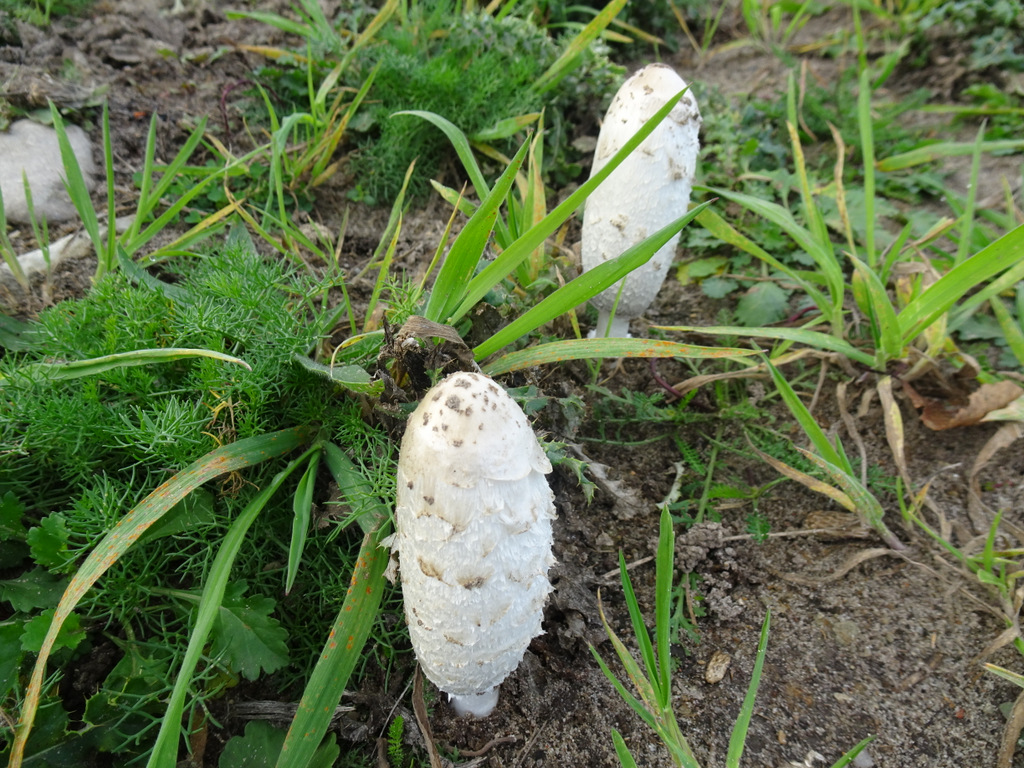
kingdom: Fungi
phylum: Basidiomycota
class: Agaricomycetes
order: Agaricales
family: Agaricaceae
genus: Coprinus
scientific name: Coprinus comatus
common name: stor parykhat
